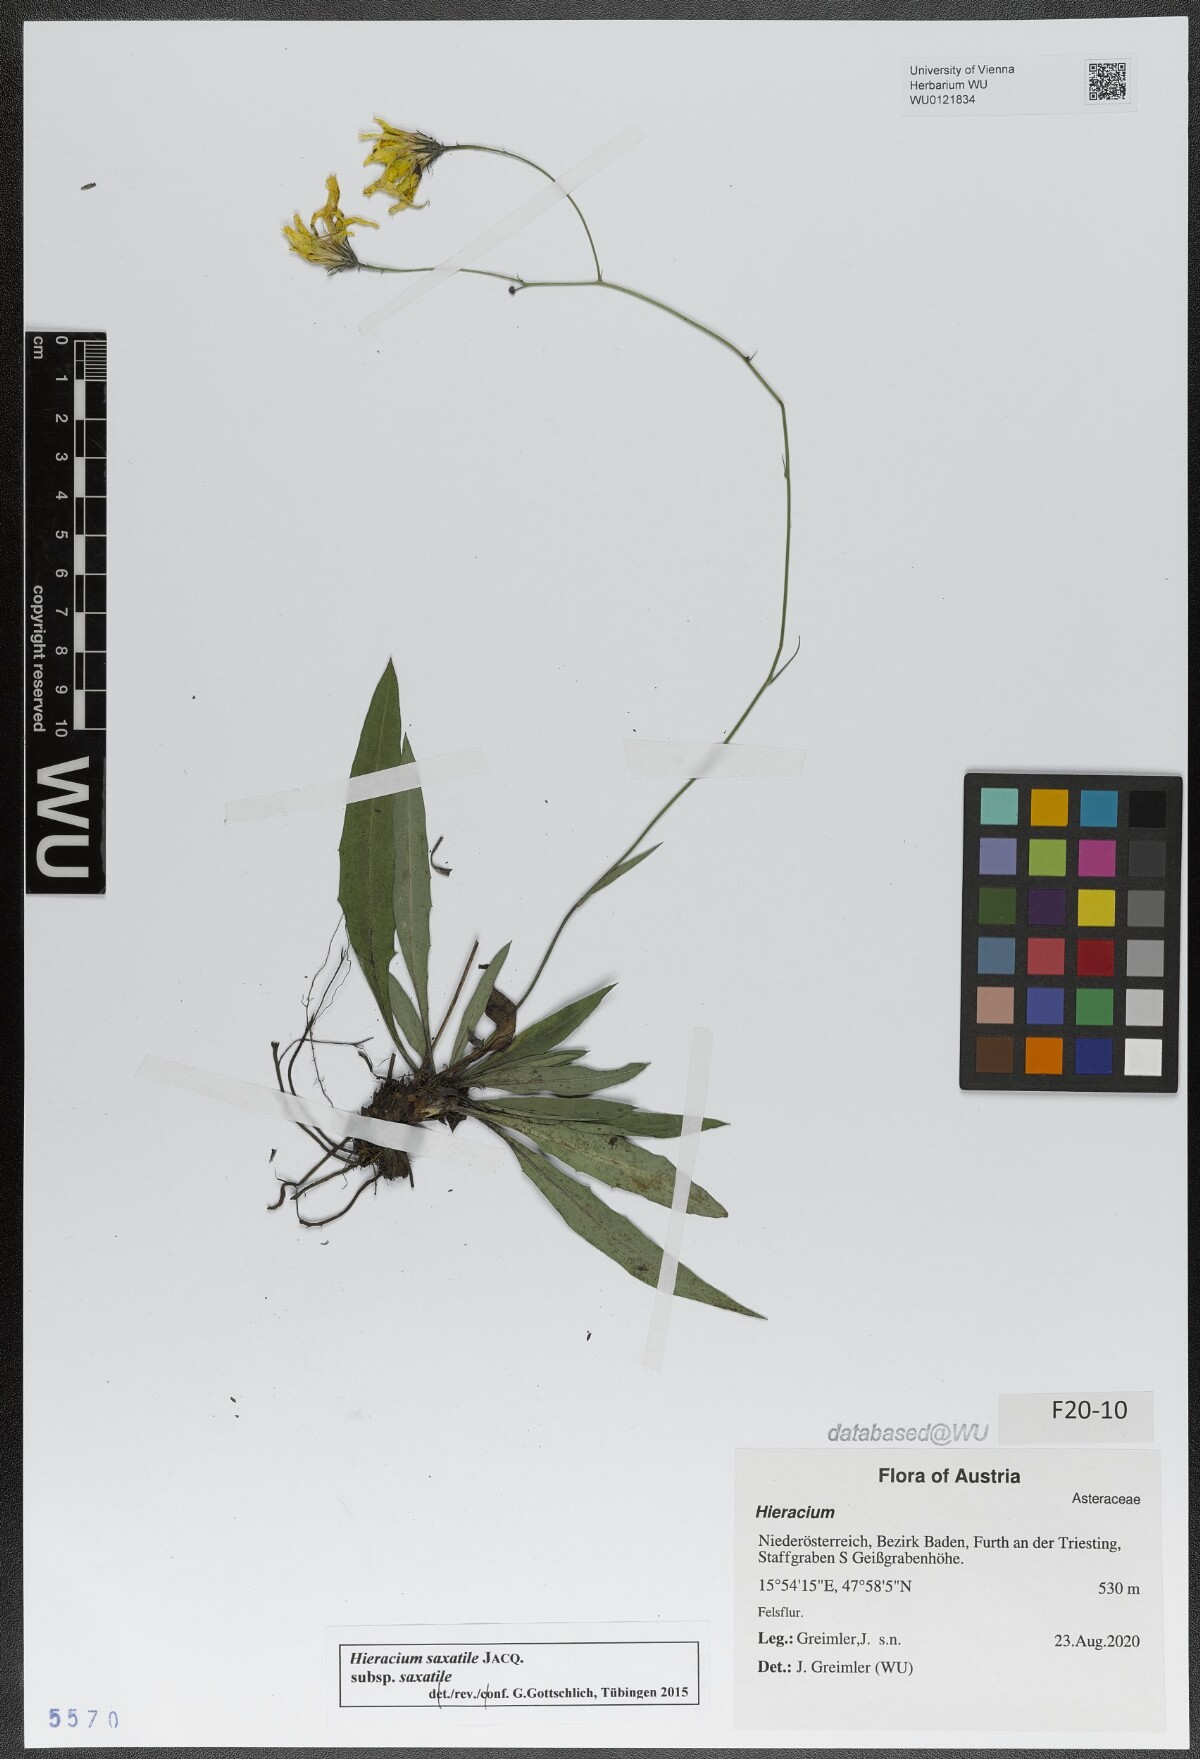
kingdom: Plantae
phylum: Tracheophyta
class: Magnoliopsida
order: Asterales
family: Asteraceae
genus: Hieracium
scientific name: Hieracium saxatile
